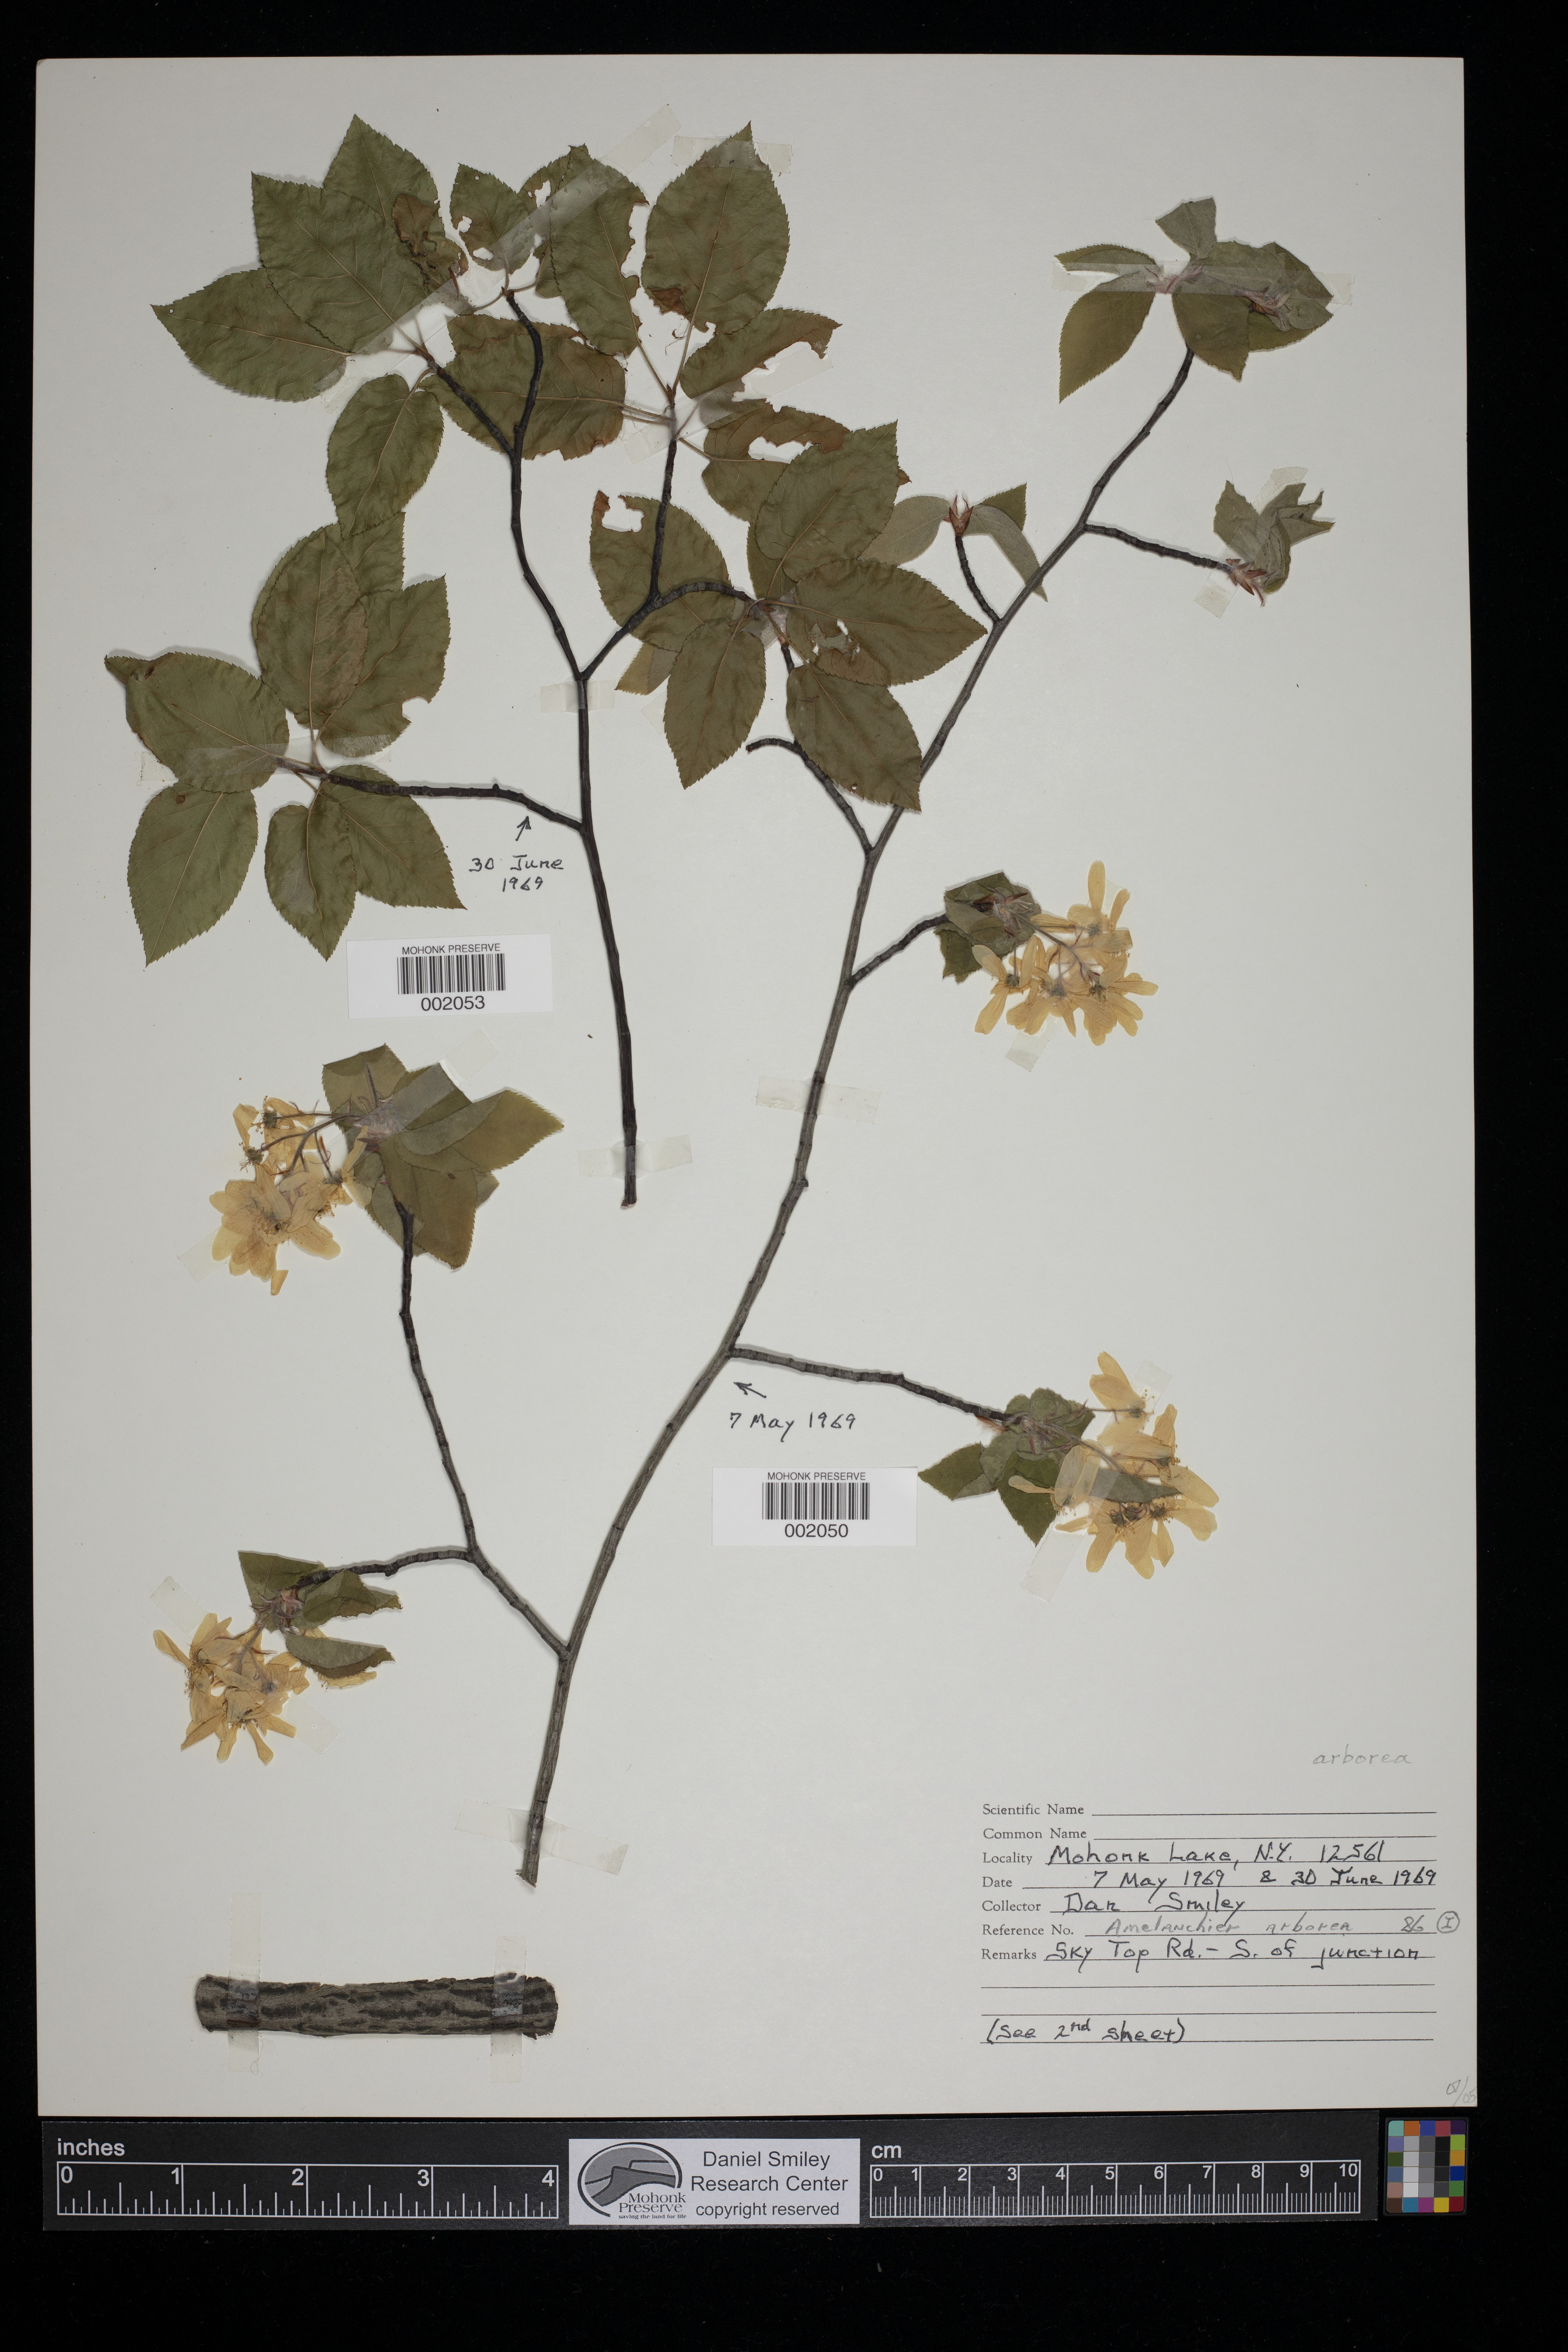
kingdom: Plantae
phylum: Tracheophyta
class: Magnoliopsida
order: Rosales
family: Rosaceae
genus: Amelanchier
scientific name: Amelanchier arborea
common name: Downy serviceberry
